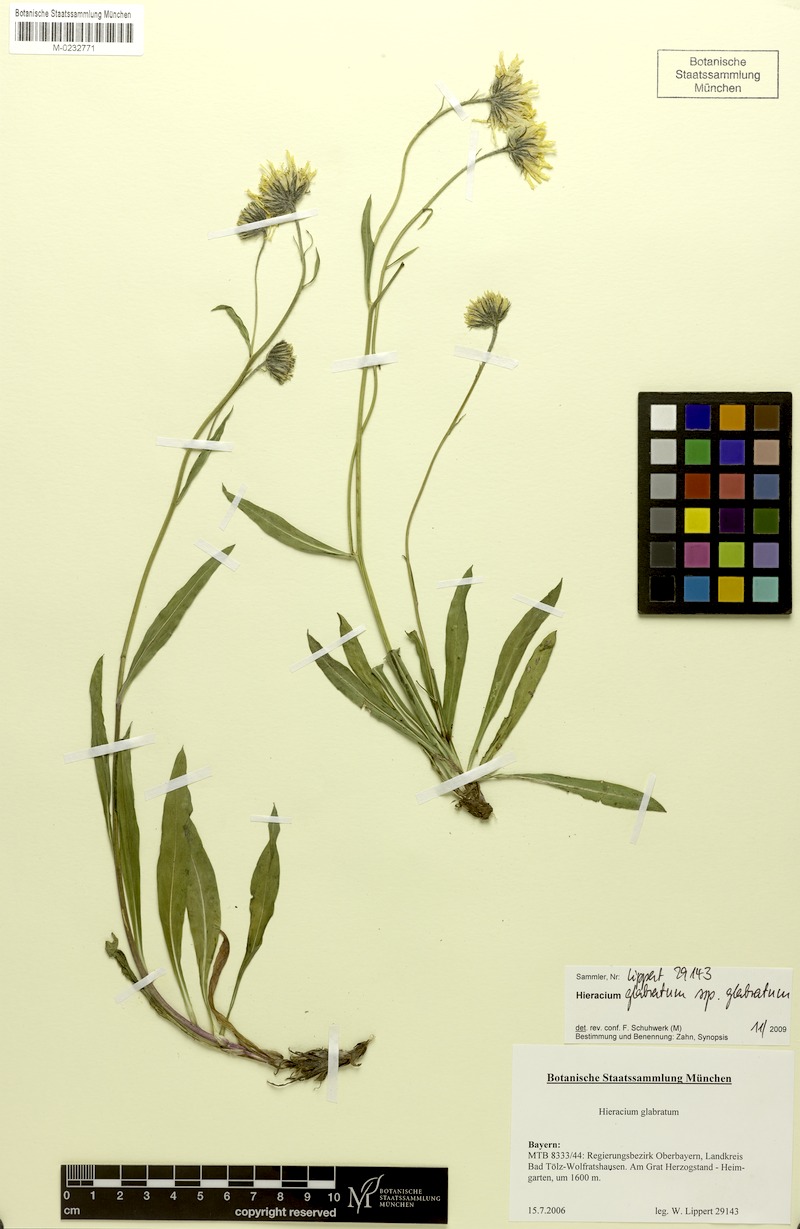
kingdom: Plantae
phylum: Tracheophyta
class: Magnoliopsida
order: Asterales
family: Asteraceae
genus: Hieracium
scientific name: Hieracium glabratum
